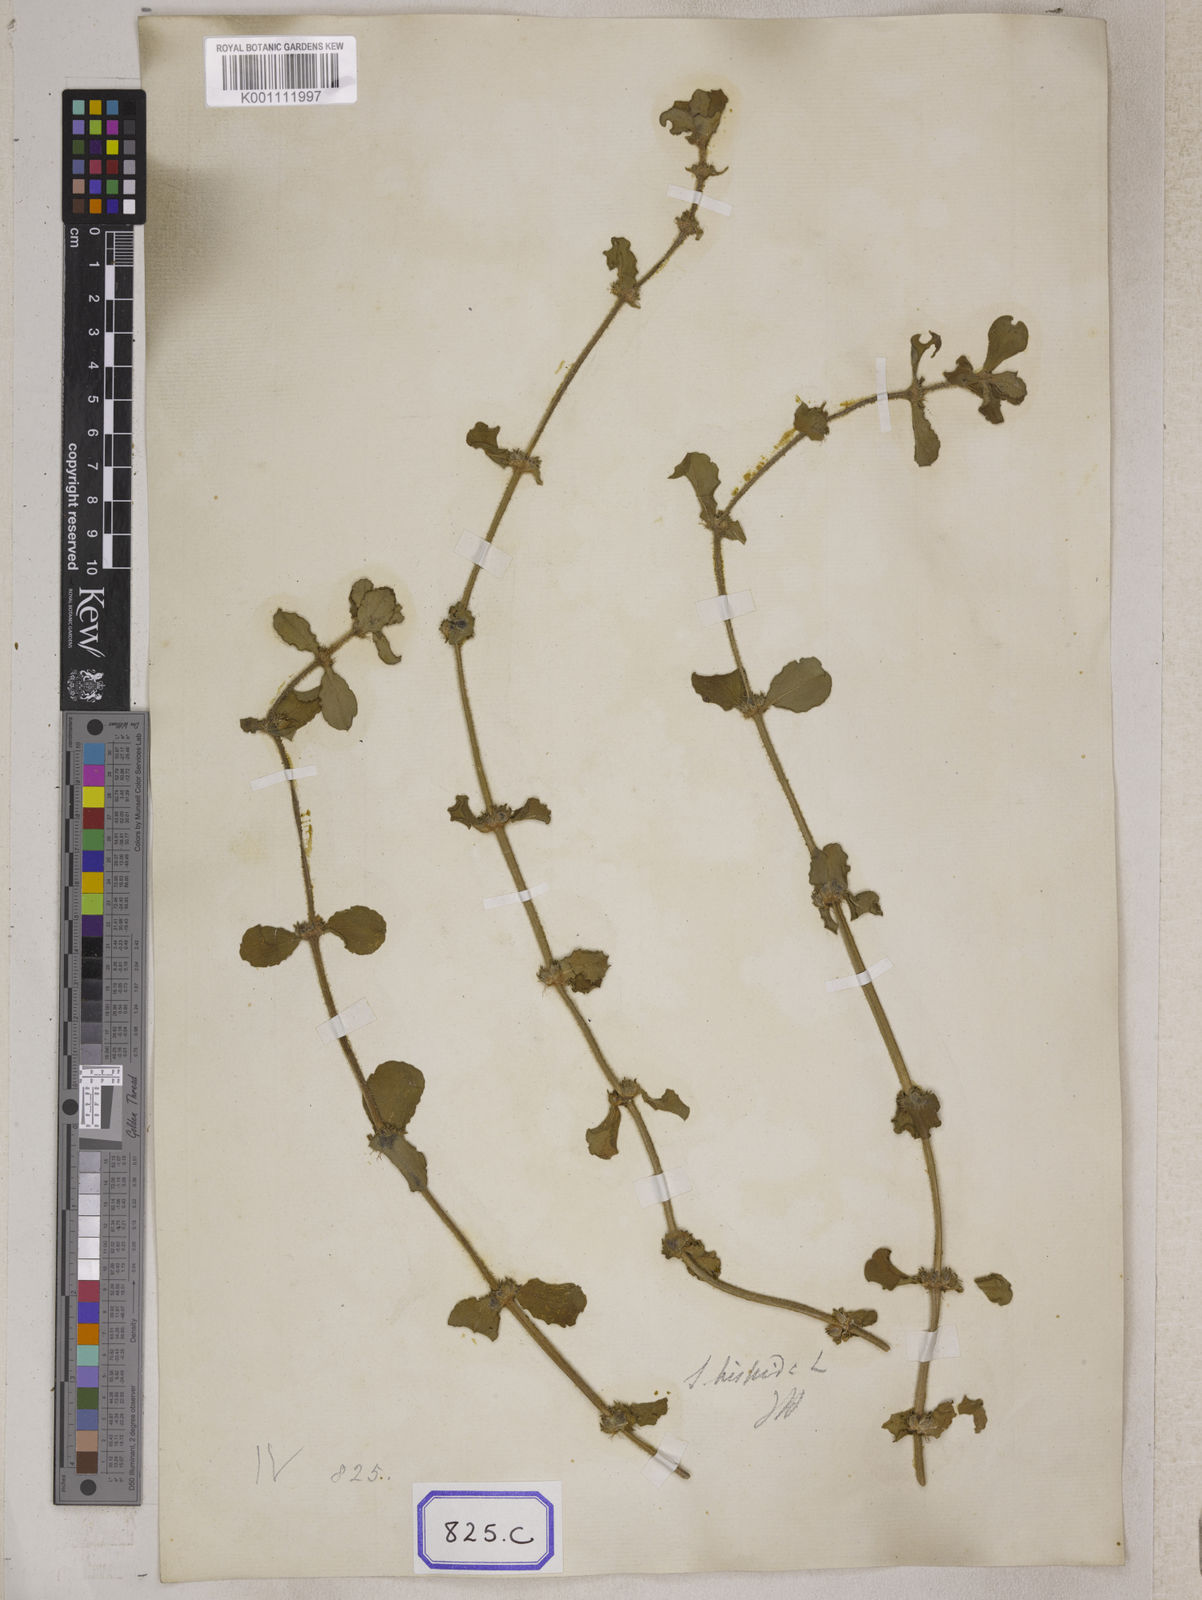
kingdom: Plantae
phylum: Tracheophyta
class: Magnoliopsida
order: Gentianales
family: Rubiaceae
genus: Spermacoce
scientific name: Spermacoce hispida
